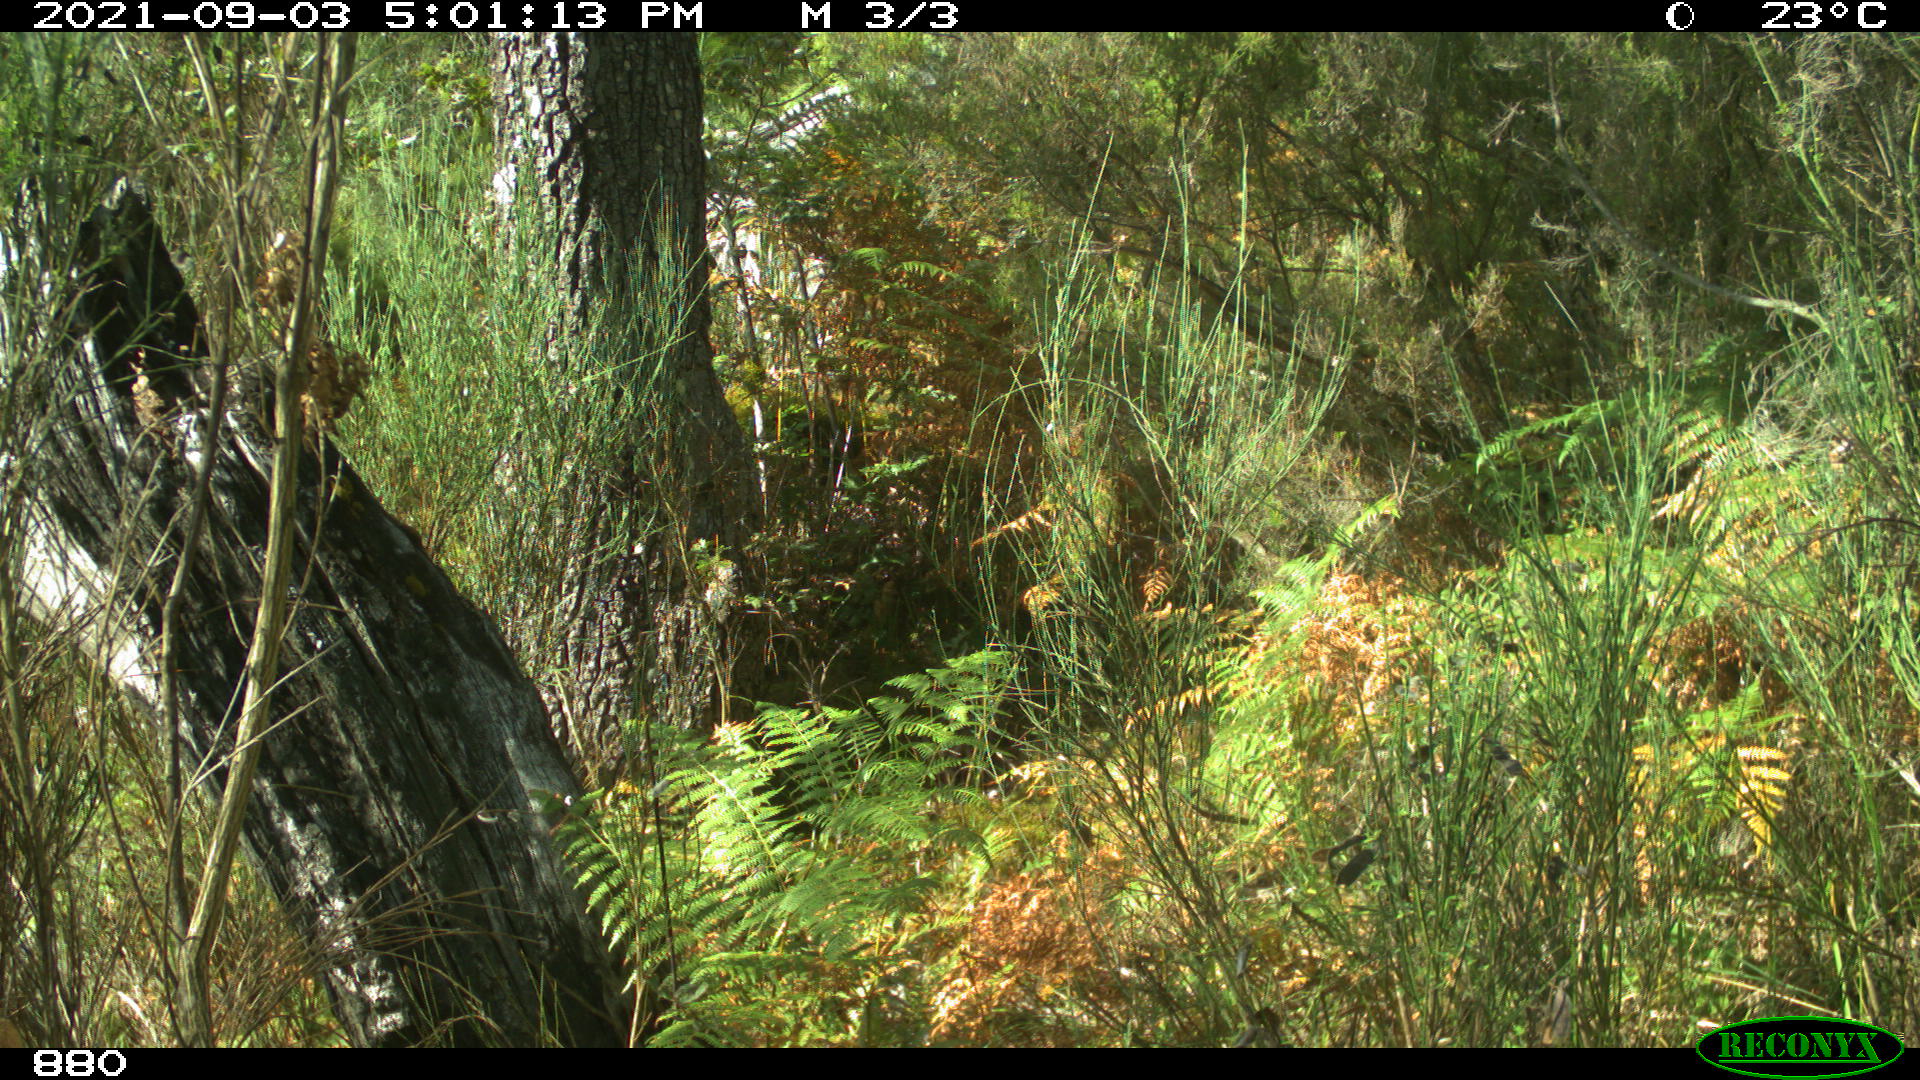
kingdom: Animalia
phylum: Chordata
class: Mammalia
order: Artiodactyla
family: Bovidae
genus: Bos
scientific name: Bos taurus
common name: Domesticated cattle
